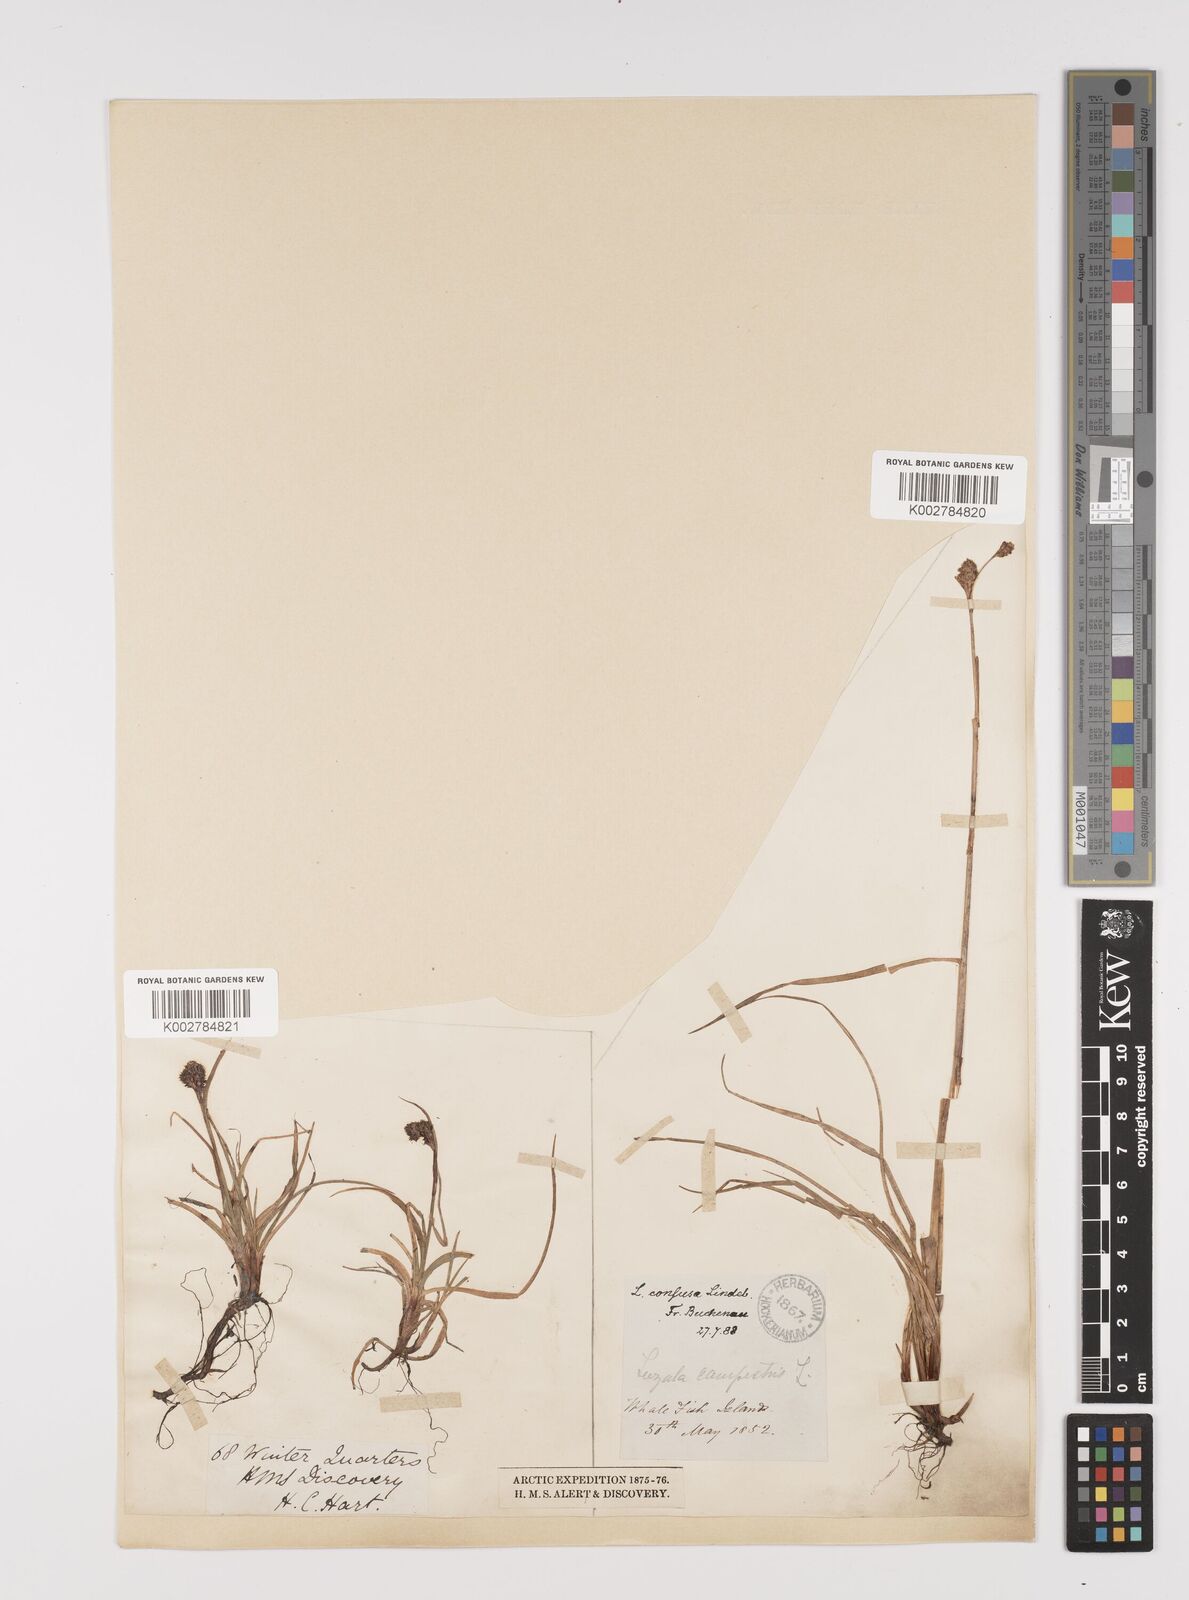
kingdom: Plantae
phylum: Tracheophyta
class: Liliopsida
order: Poales
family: Juncaceae
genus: Luzula
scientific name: Luzula confusa
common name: Northern wood rush
